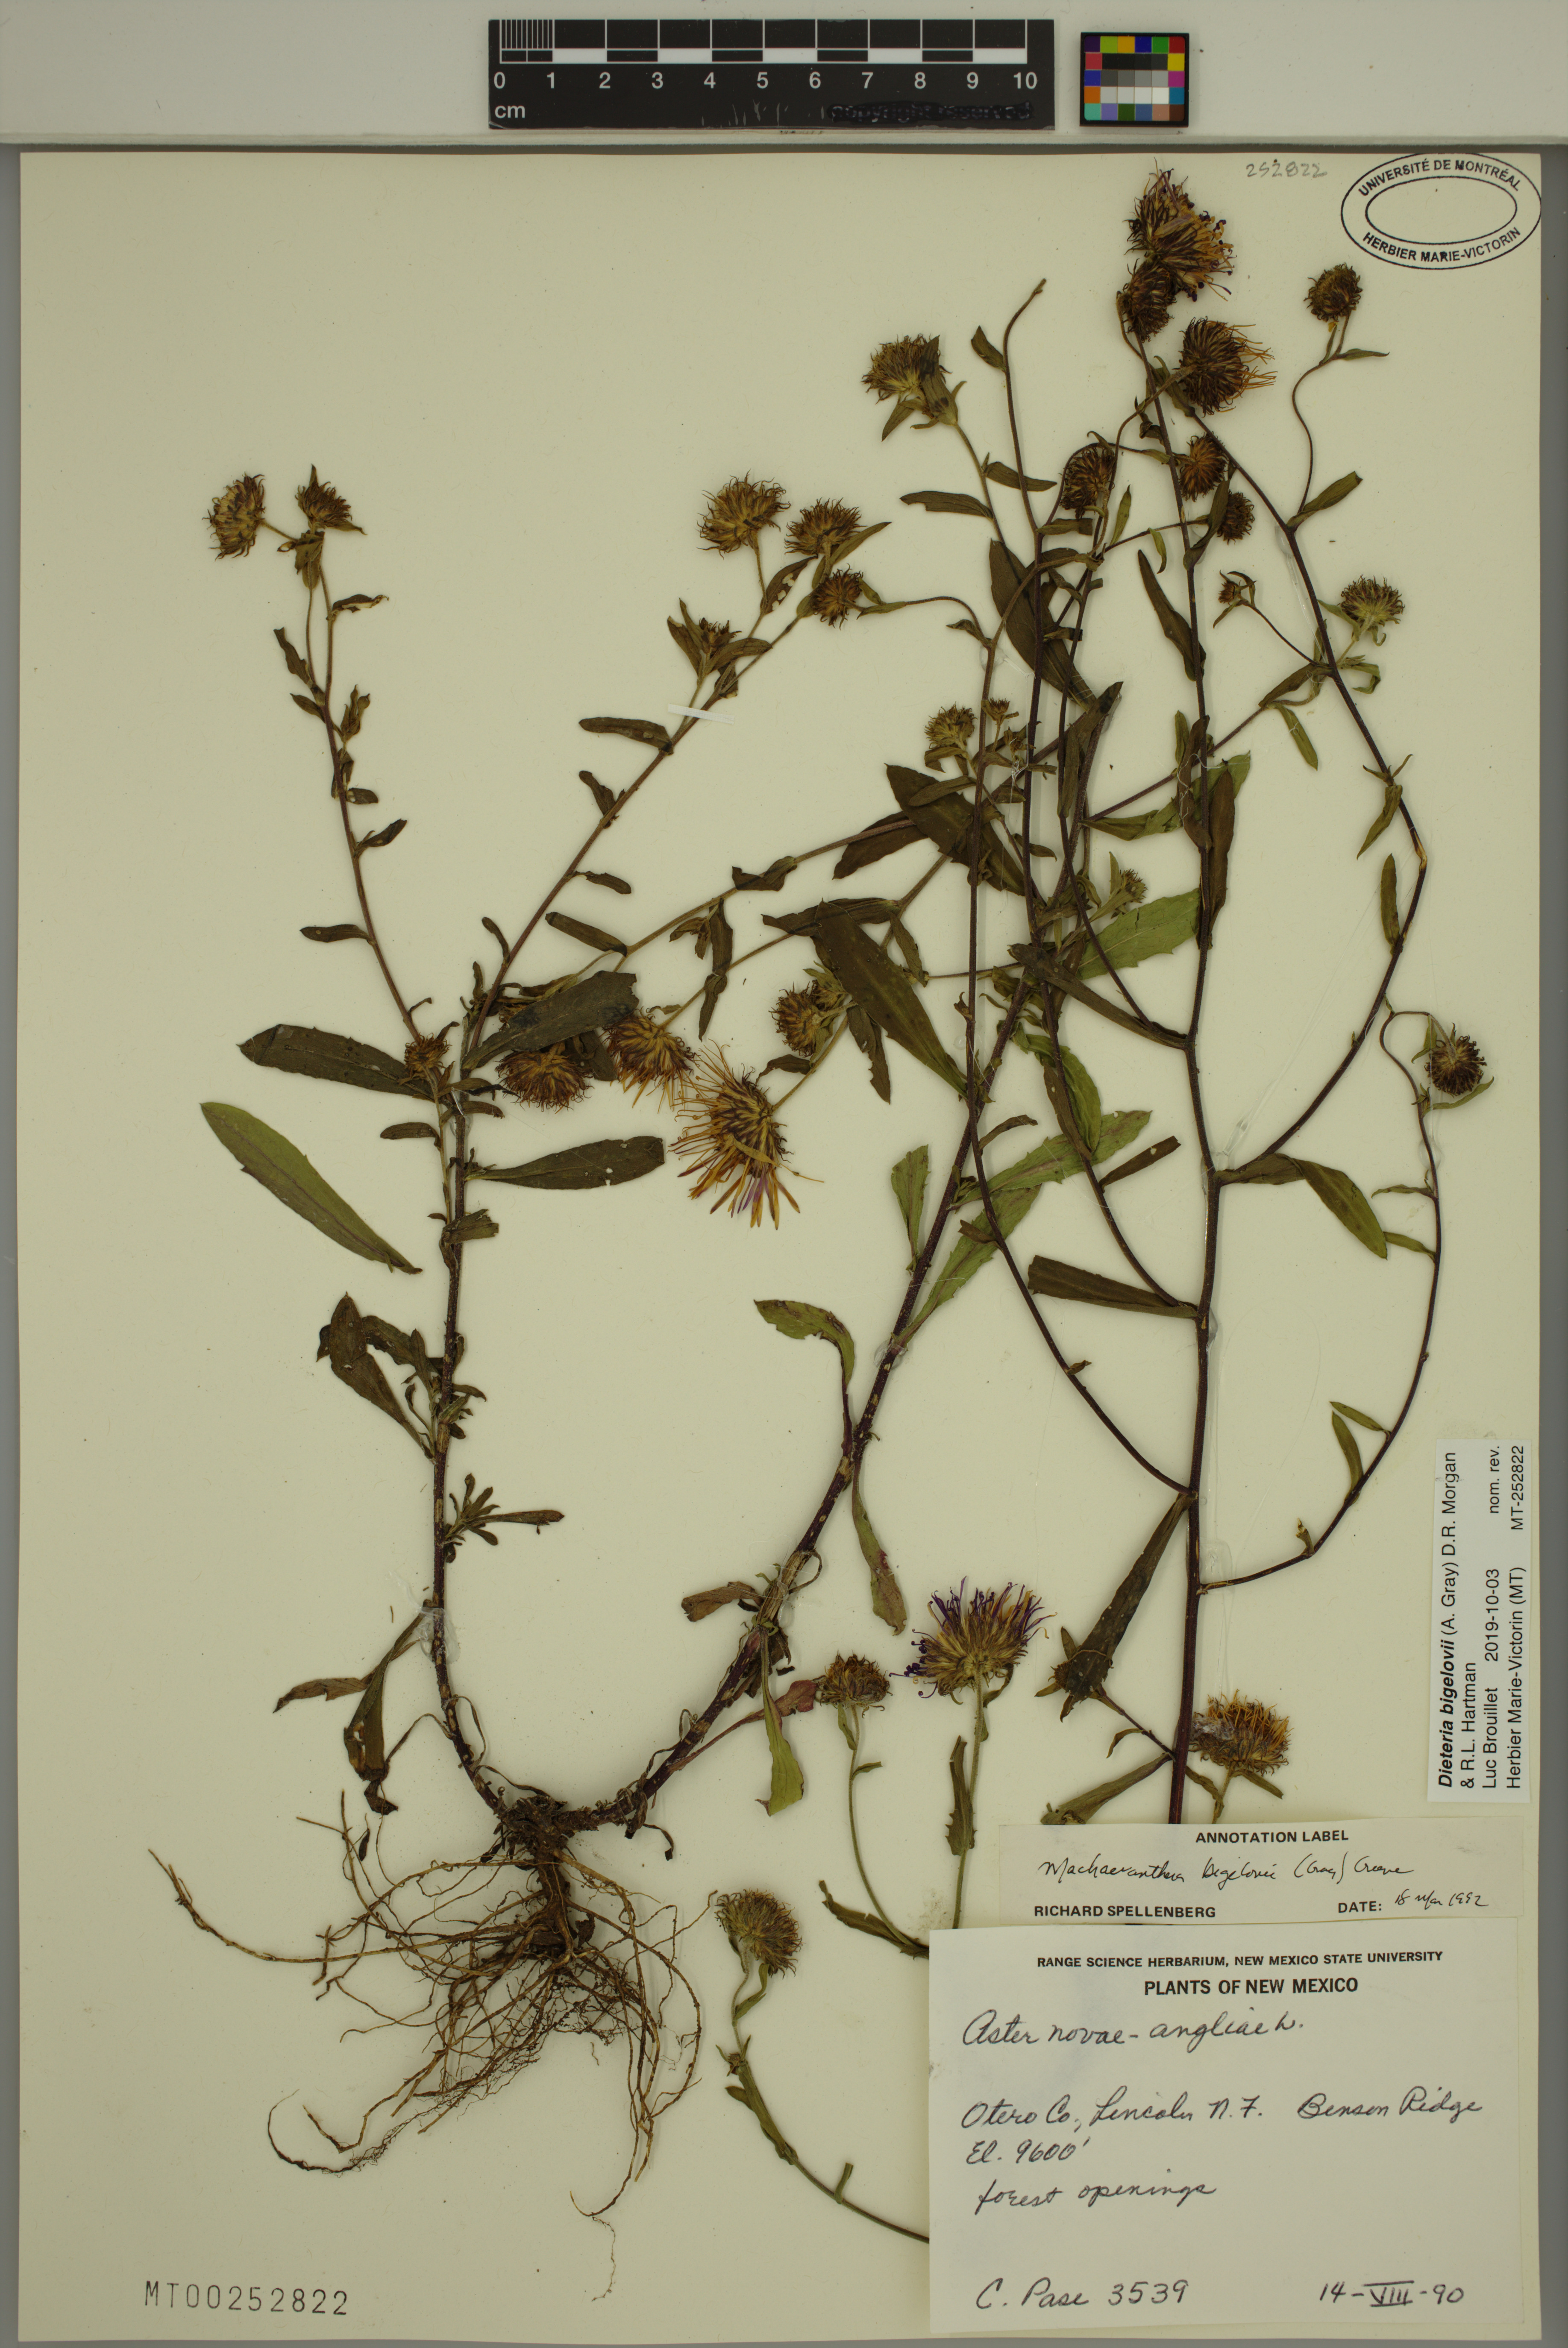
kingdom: Plantae
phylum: Tracheophyta
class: Magnoliopsida
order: Asterales
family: Asteraceae
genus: Dieteria
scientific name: Dieteria bigelovii
